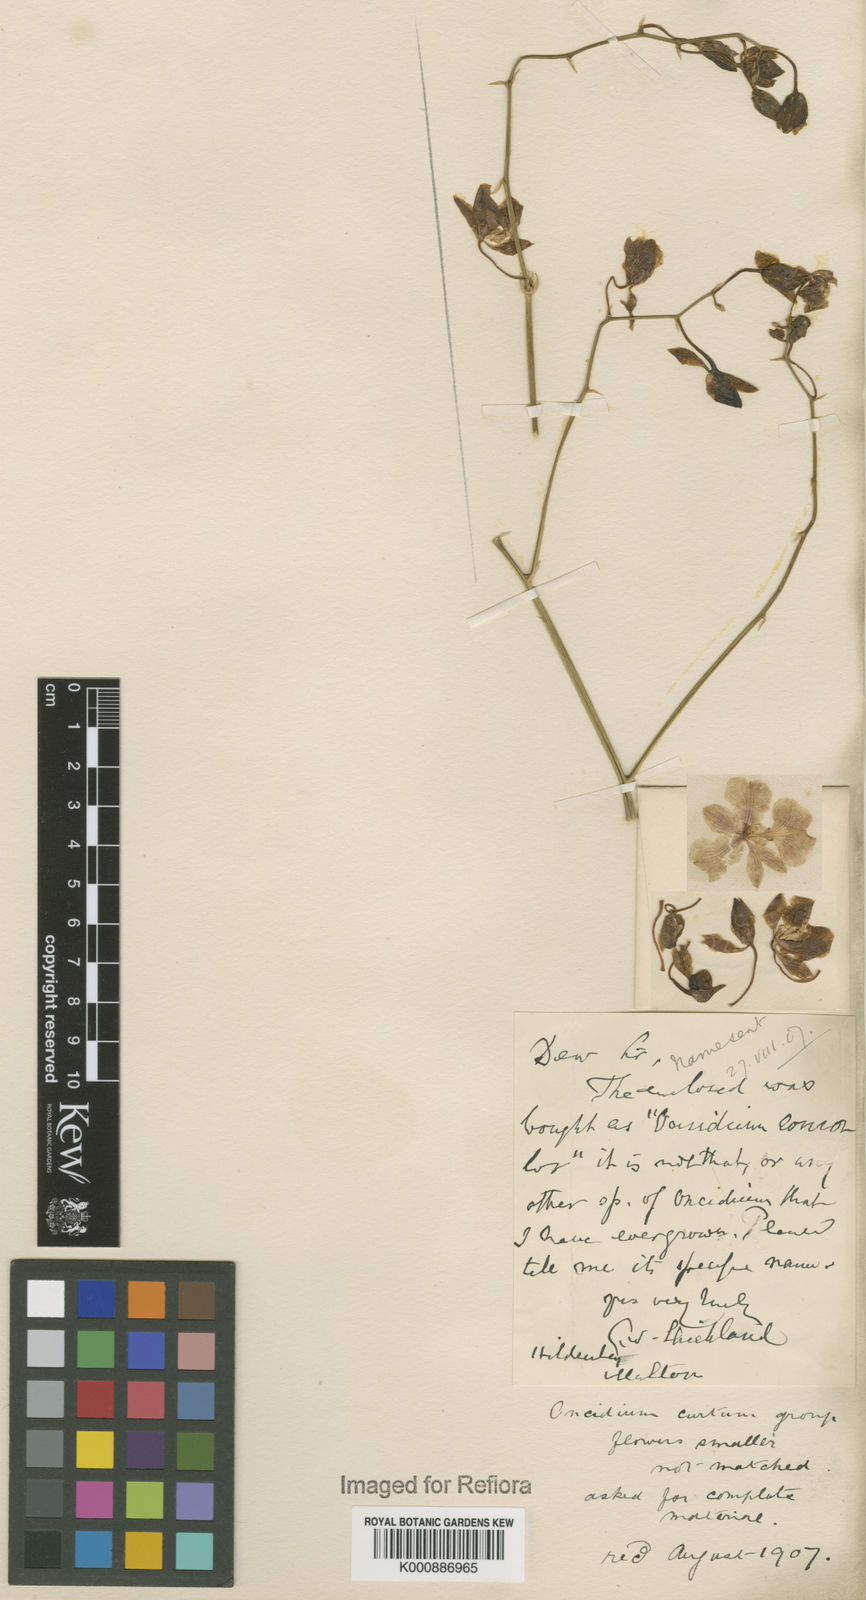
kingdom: Plantae
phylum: Tracheophyta
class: Liliopsida
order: Asparagales
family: Orchidaceae
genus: Gomesa
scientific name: Gomesa gardneri
